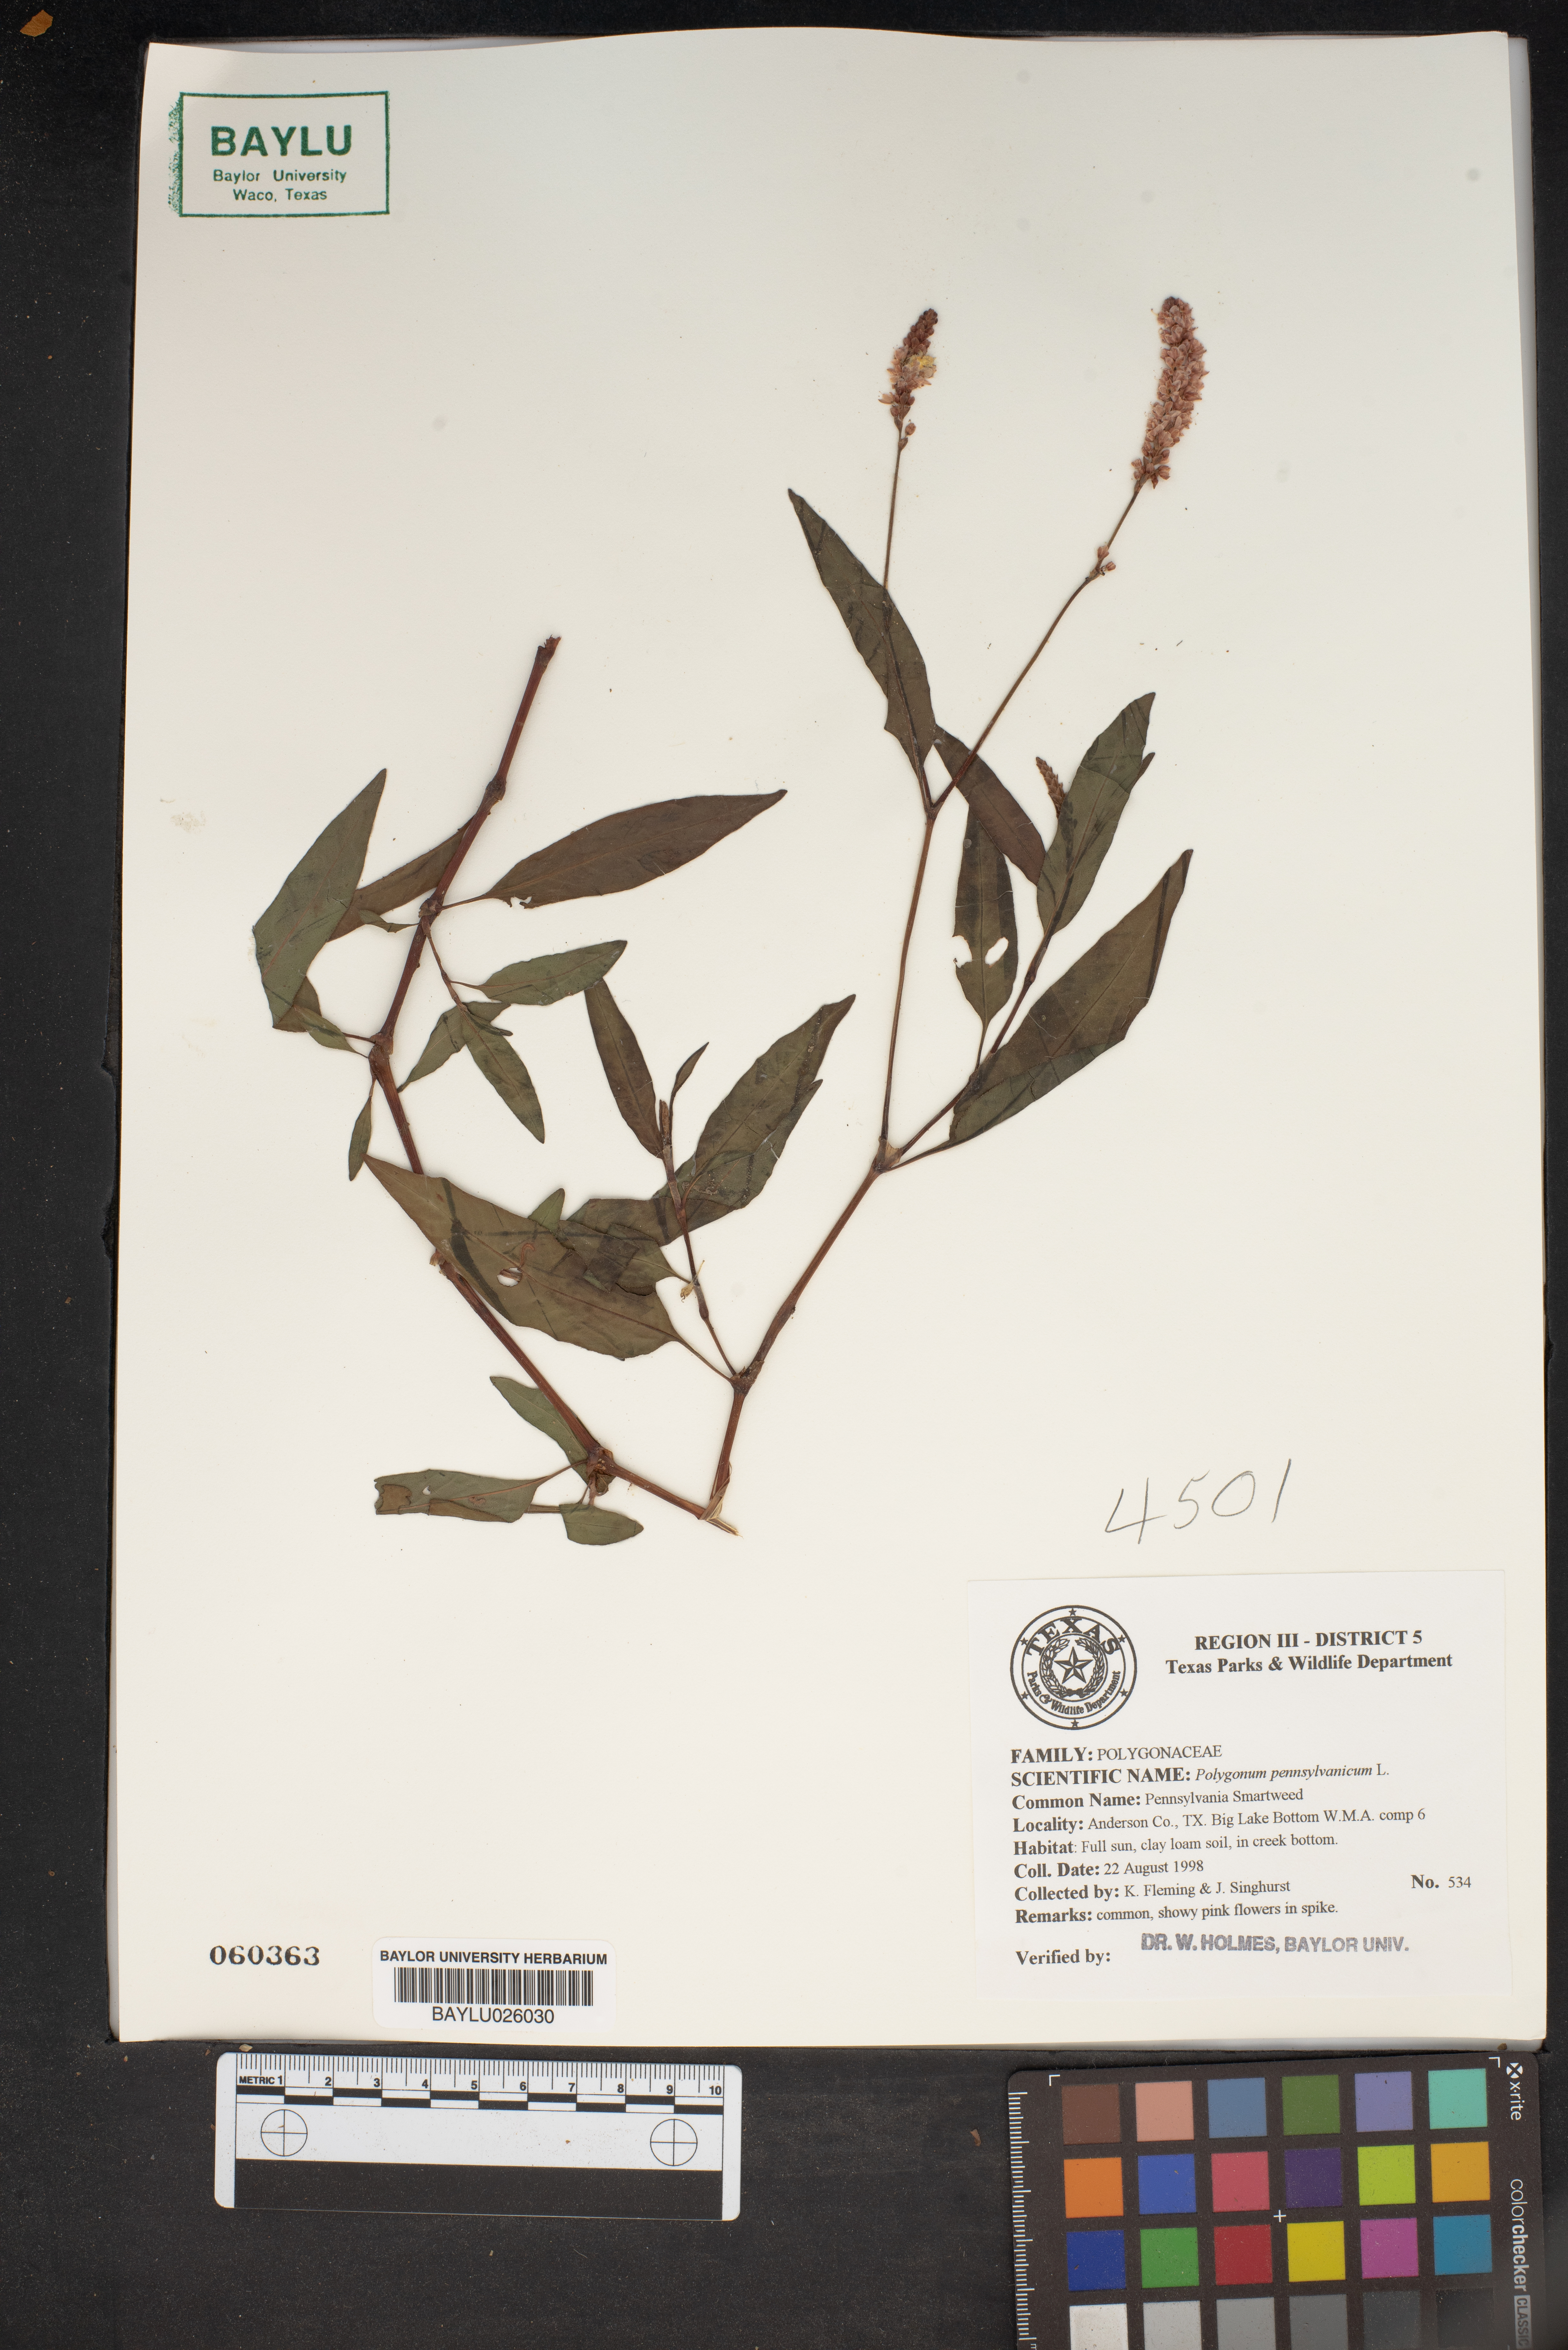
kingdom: Plantae
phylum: Tracheophyta
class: Magnoliopsida
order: Caryophyllales
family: Polygonaceae
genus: Persicaria
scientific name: Persicaria pensylvanica
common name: Pinkweed
